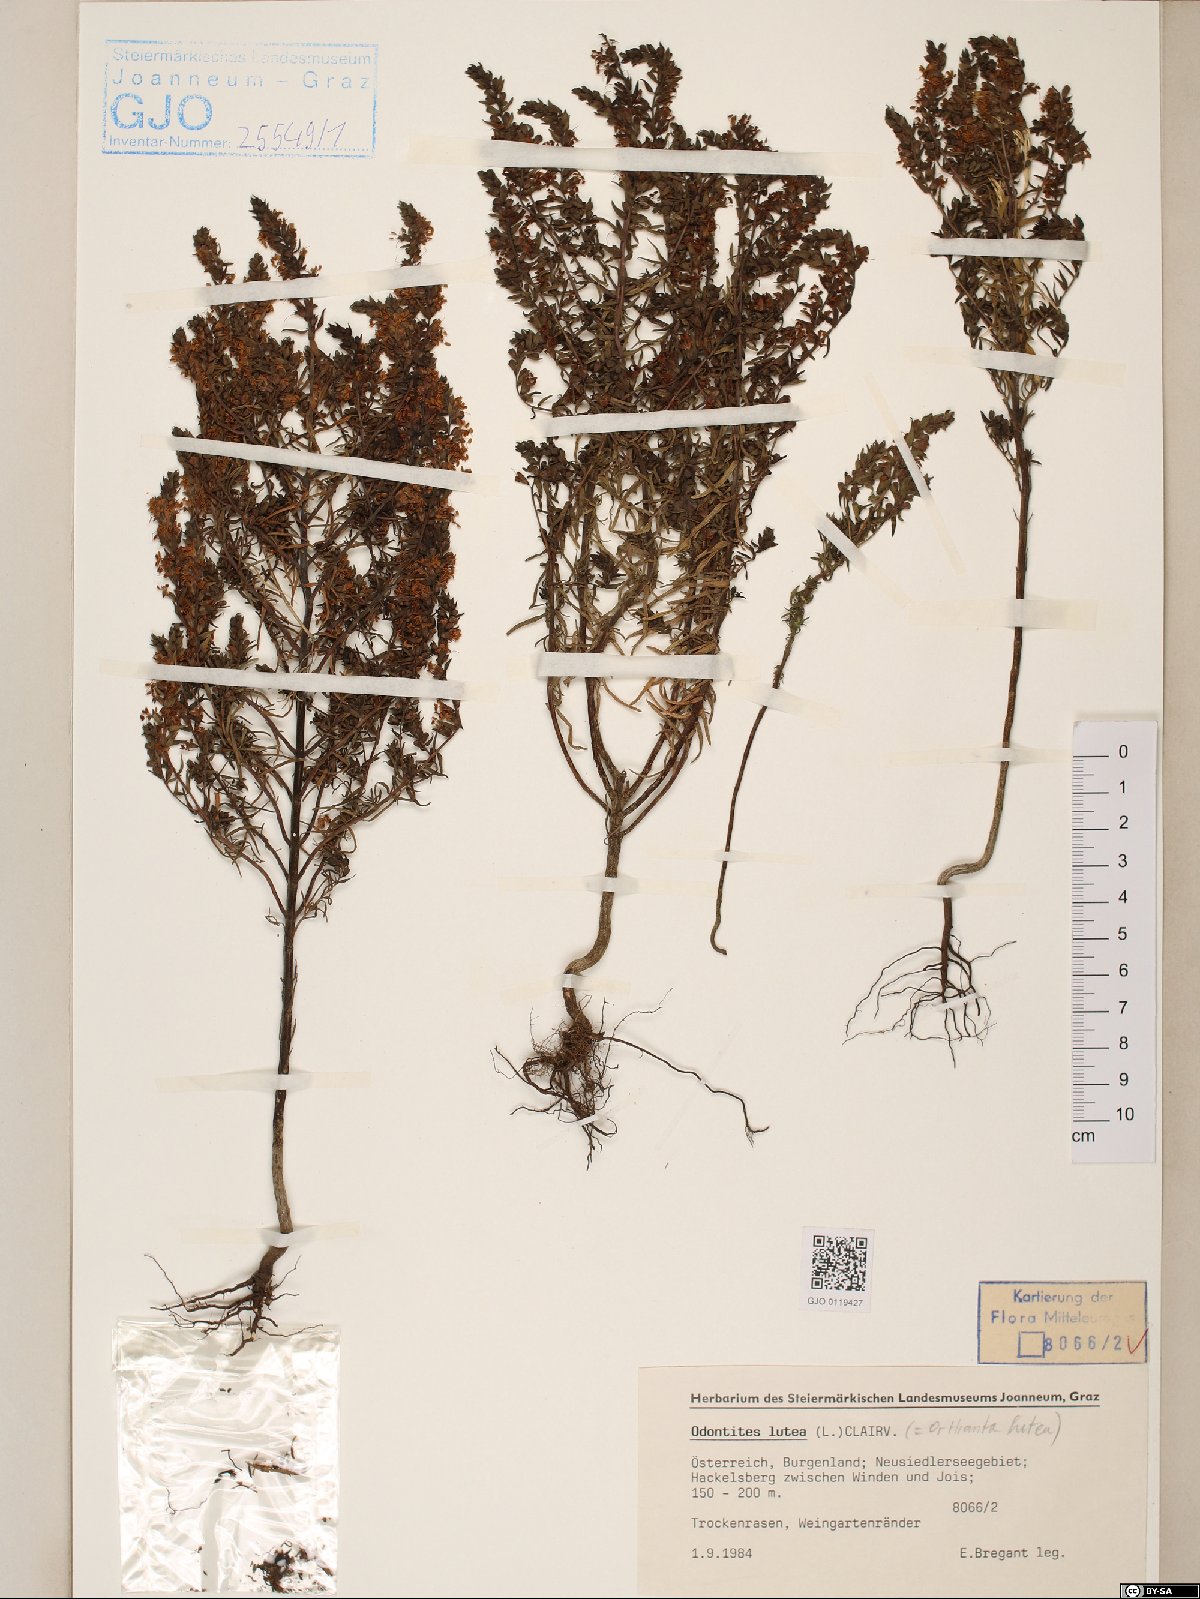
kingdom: Plantae
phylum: Tracheophyta
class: Magnoliopsida
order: Lamiales
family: Orobanchaceae
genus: Odontites
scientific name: Odontites luteus
